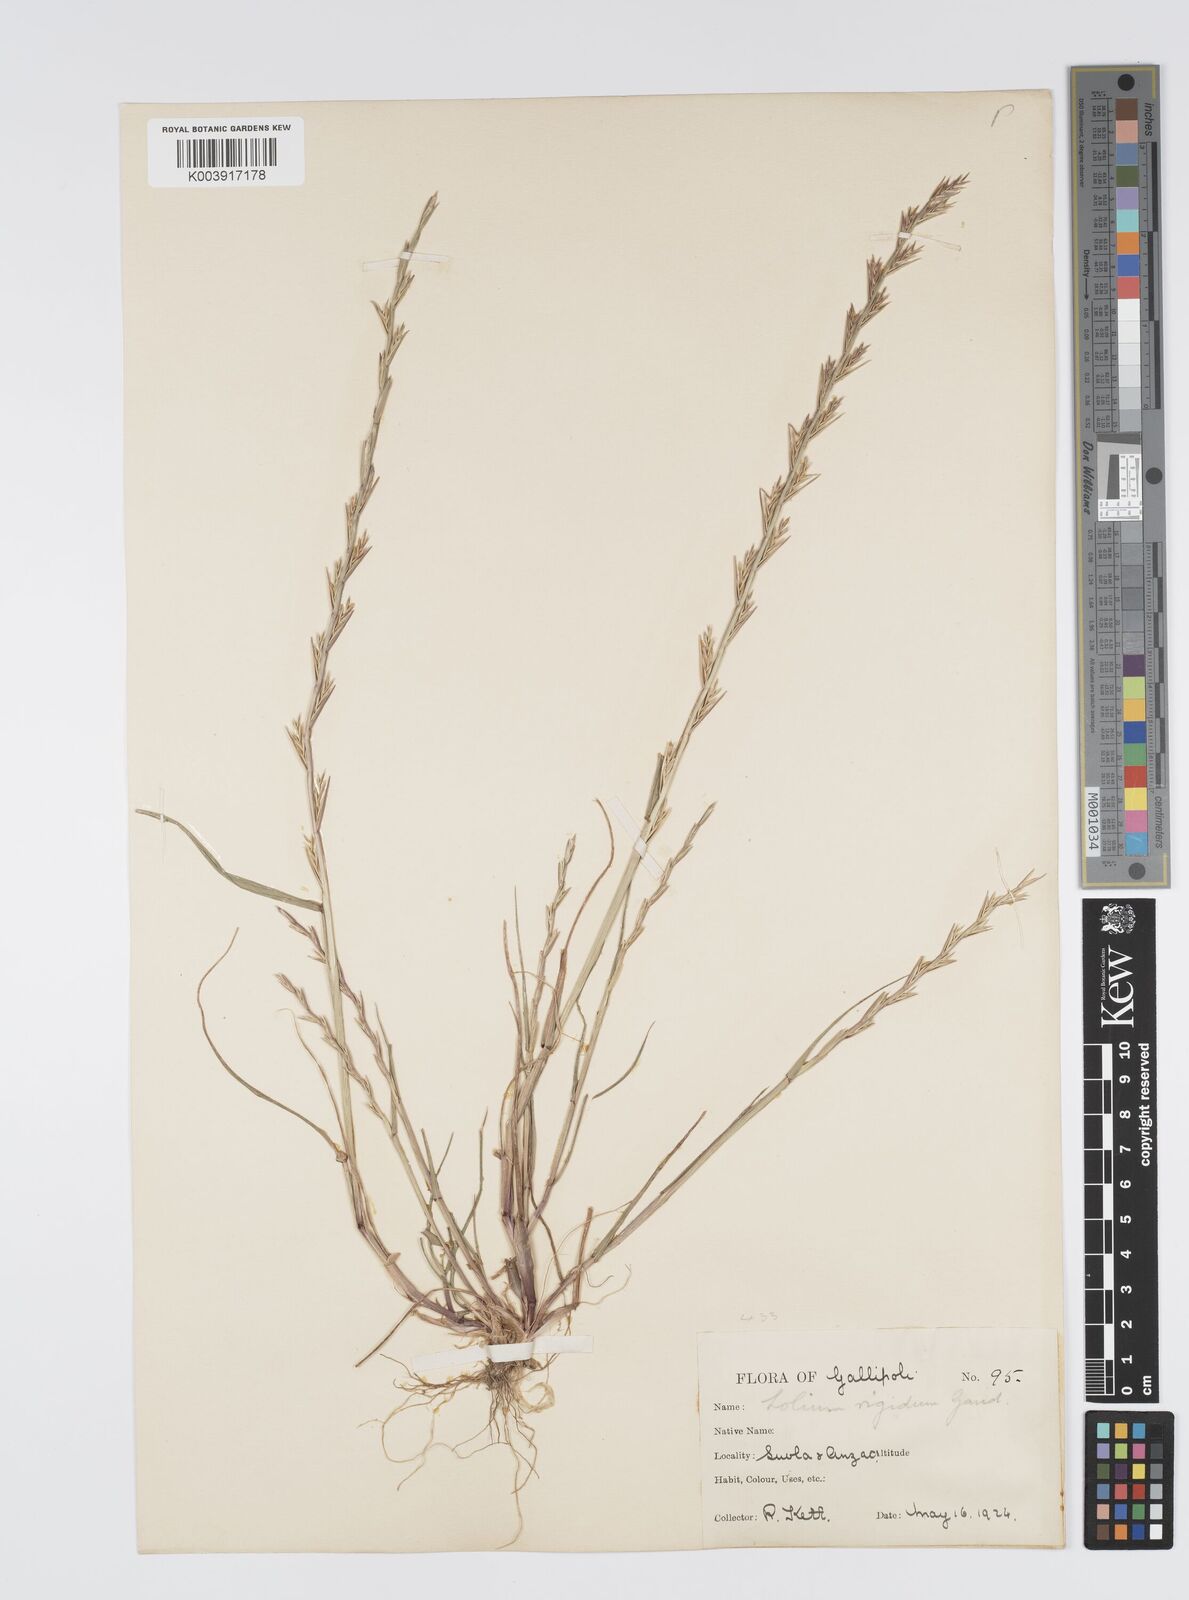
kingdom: Plantae
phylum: Tracheophyta
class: Liliopsida
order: Poales
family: Poaceae
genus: Lolium
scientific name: Lolium rigidum
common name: Wimmera ryegrass
